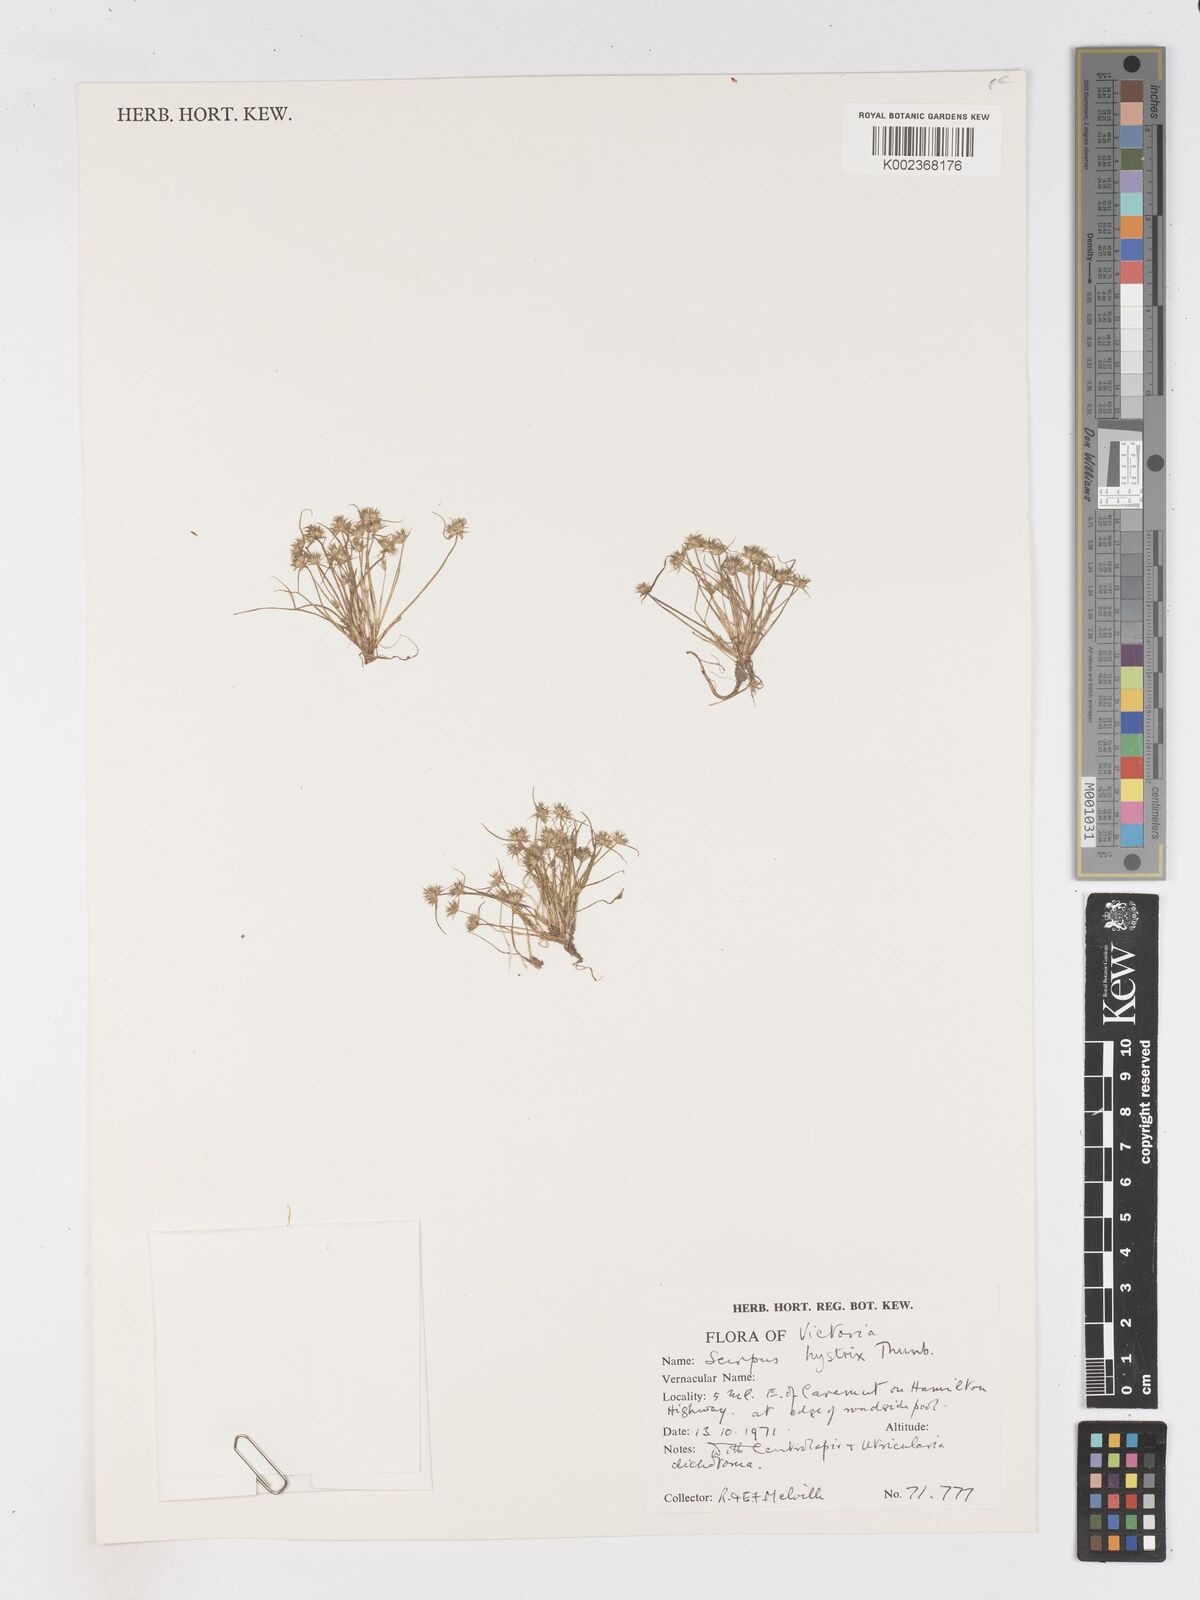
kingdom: Plantae
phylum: Tracheophyta
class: Liliopsida
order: Poales
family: Cyperaceae
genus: Isolepis
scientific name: Isolepis hystrix
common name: Bottlebrush bulrush
